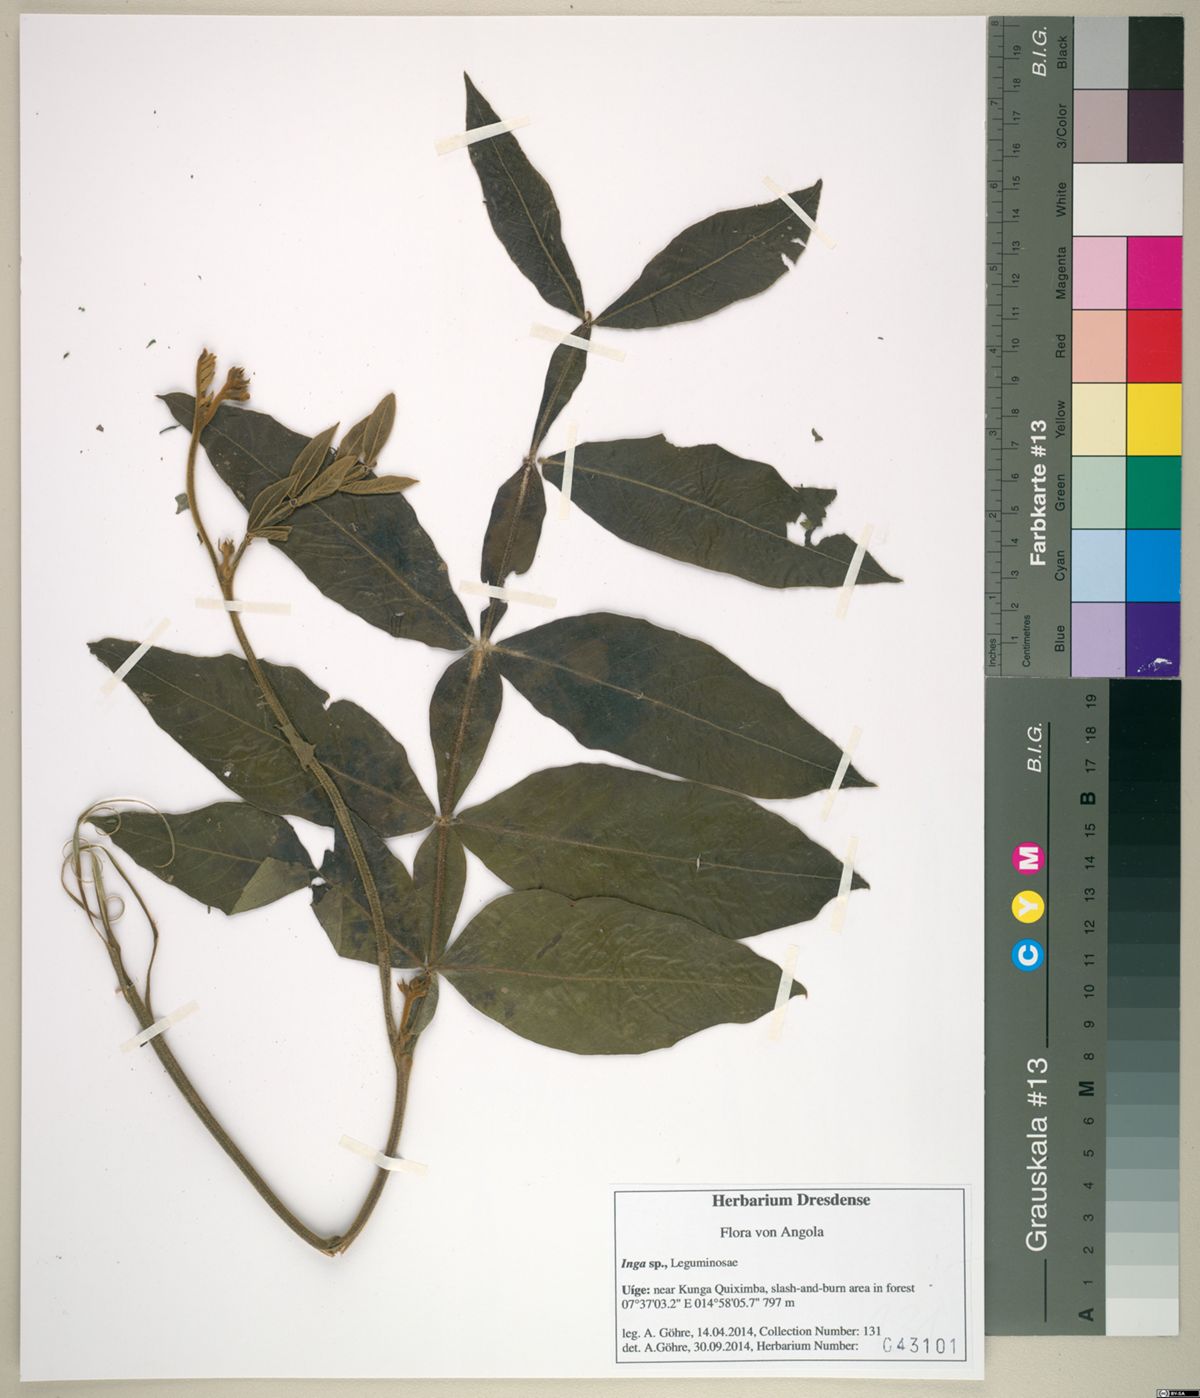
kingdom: Plantae
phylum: Tracheophyta
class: Magnoliopsida
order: Fabales
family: Fabaceae
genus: Inga
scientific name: Inga
